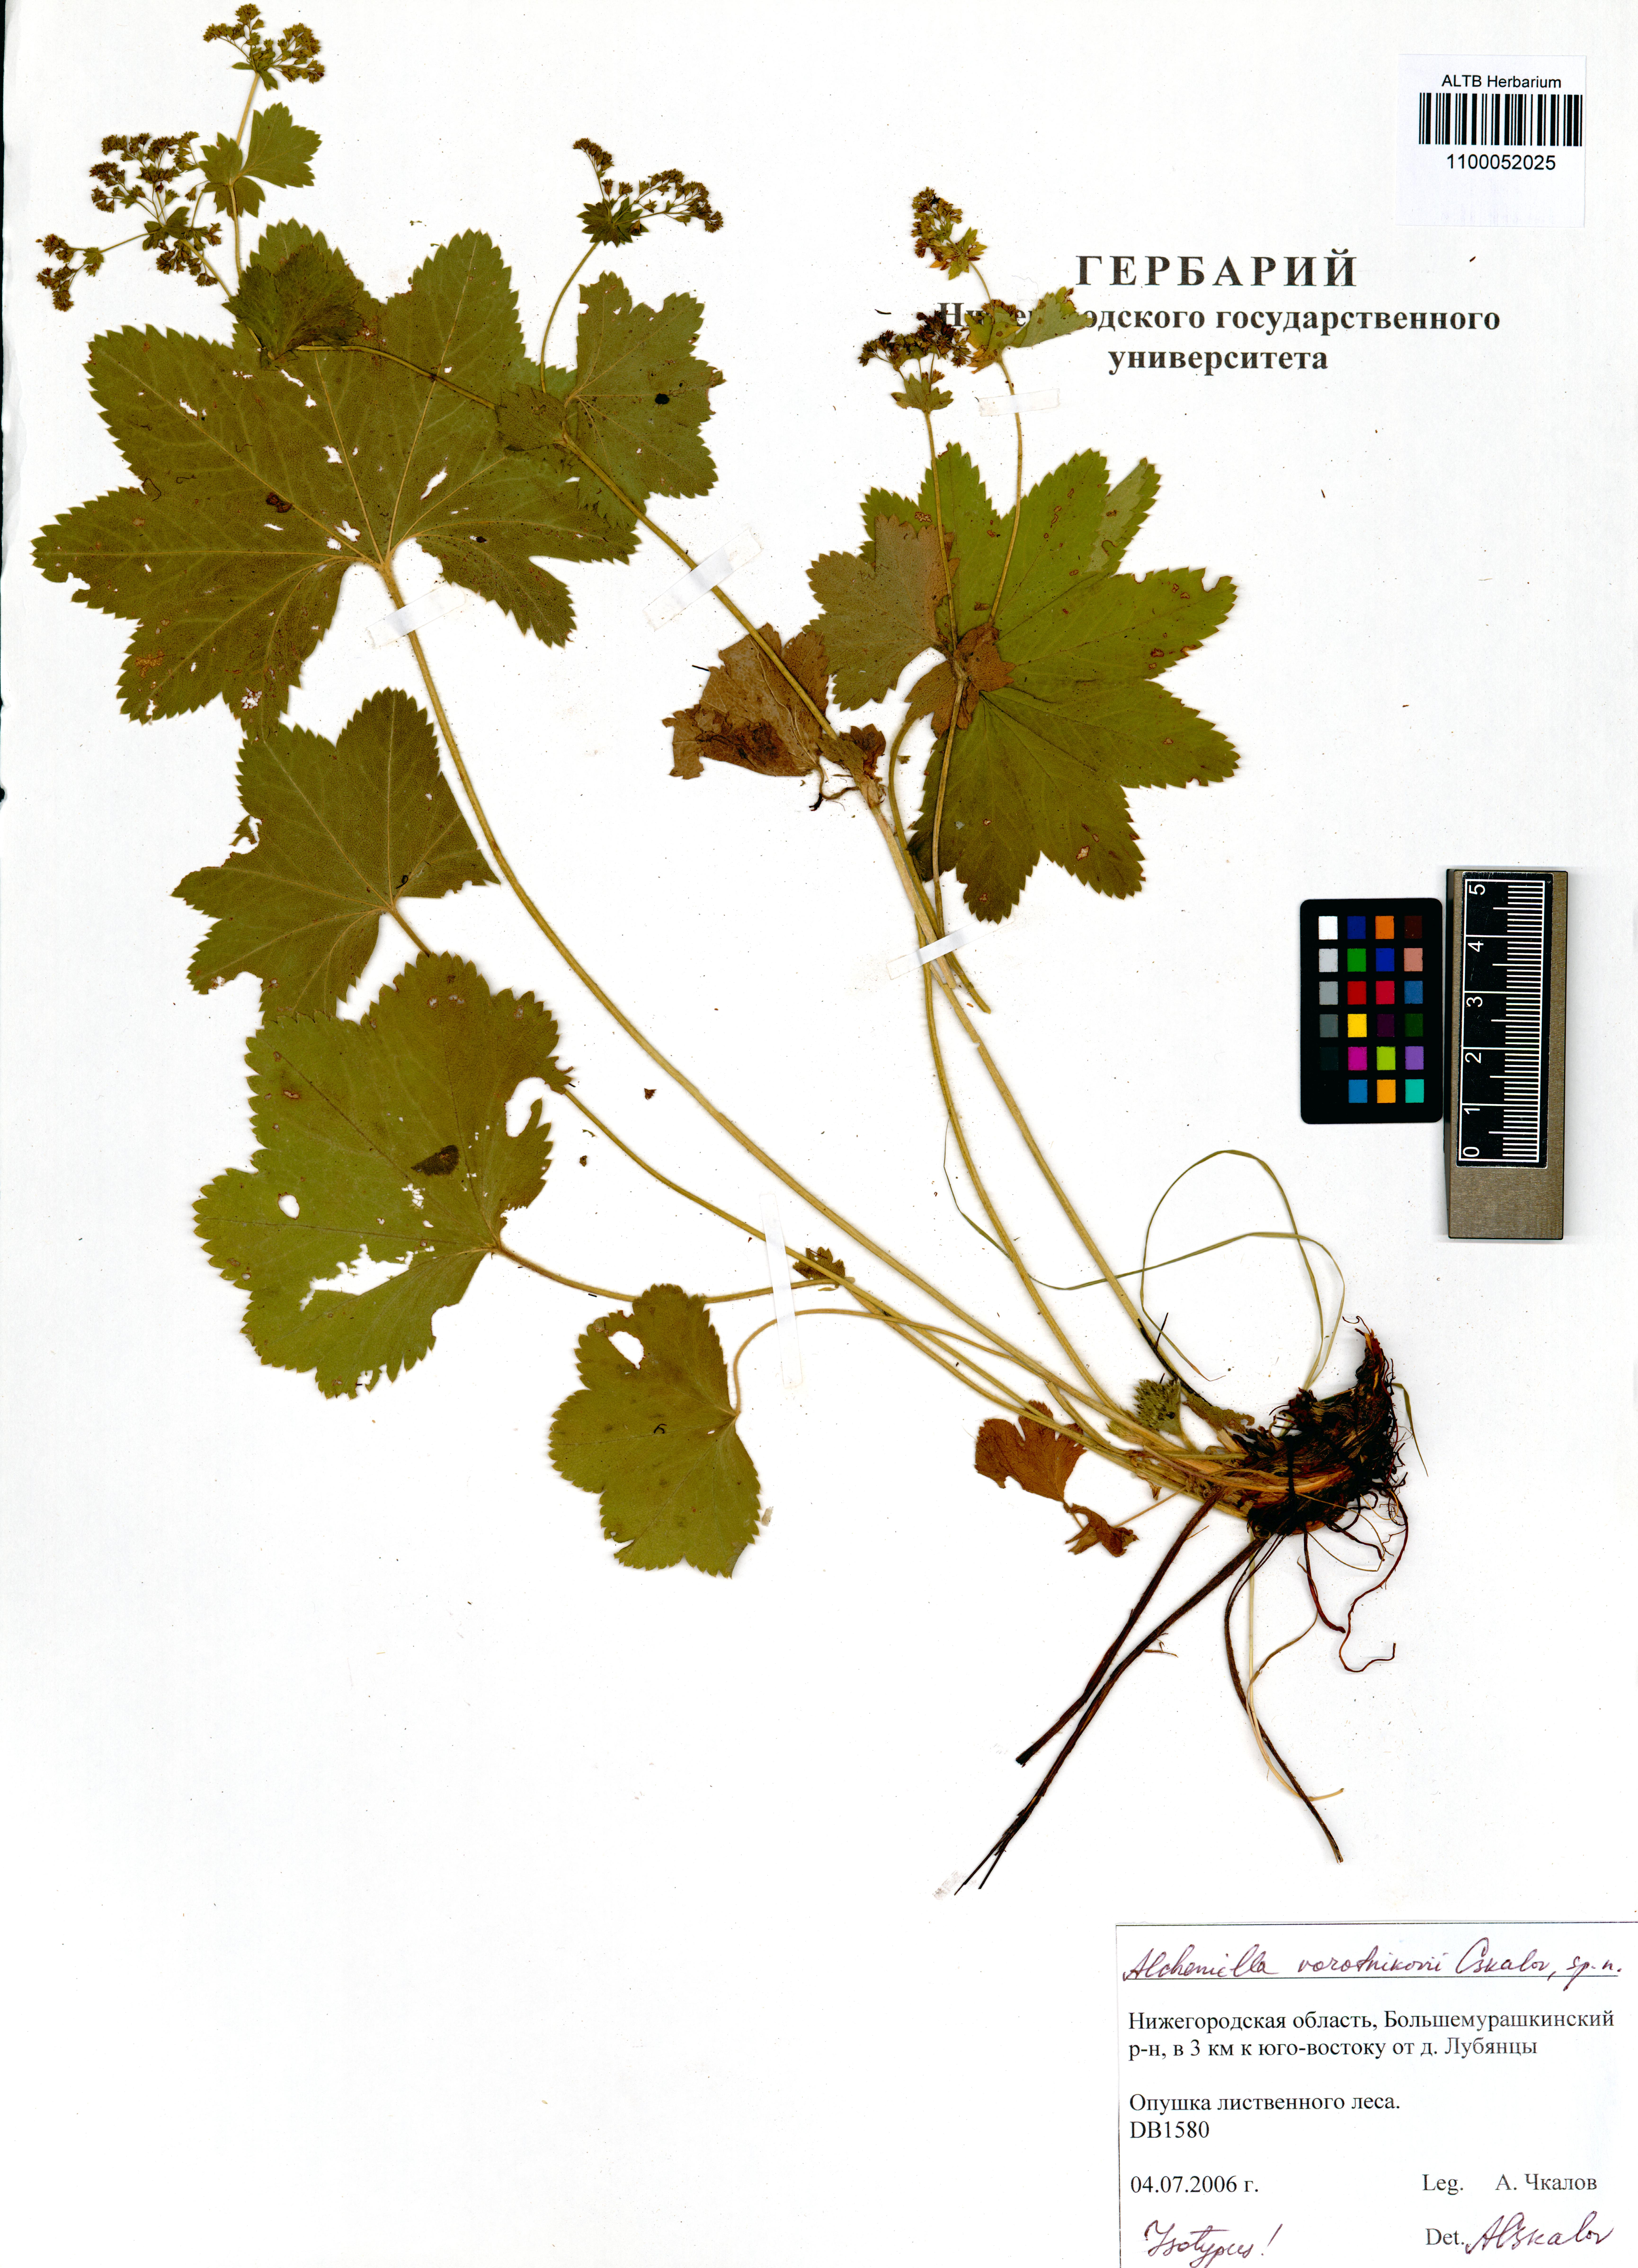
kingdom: Plantae
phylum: Tracheophyta
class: Magnoliopsida
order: Rosales
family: Rosaceae
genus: Alchemilla
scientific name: Alchemilla vorotnikovii
